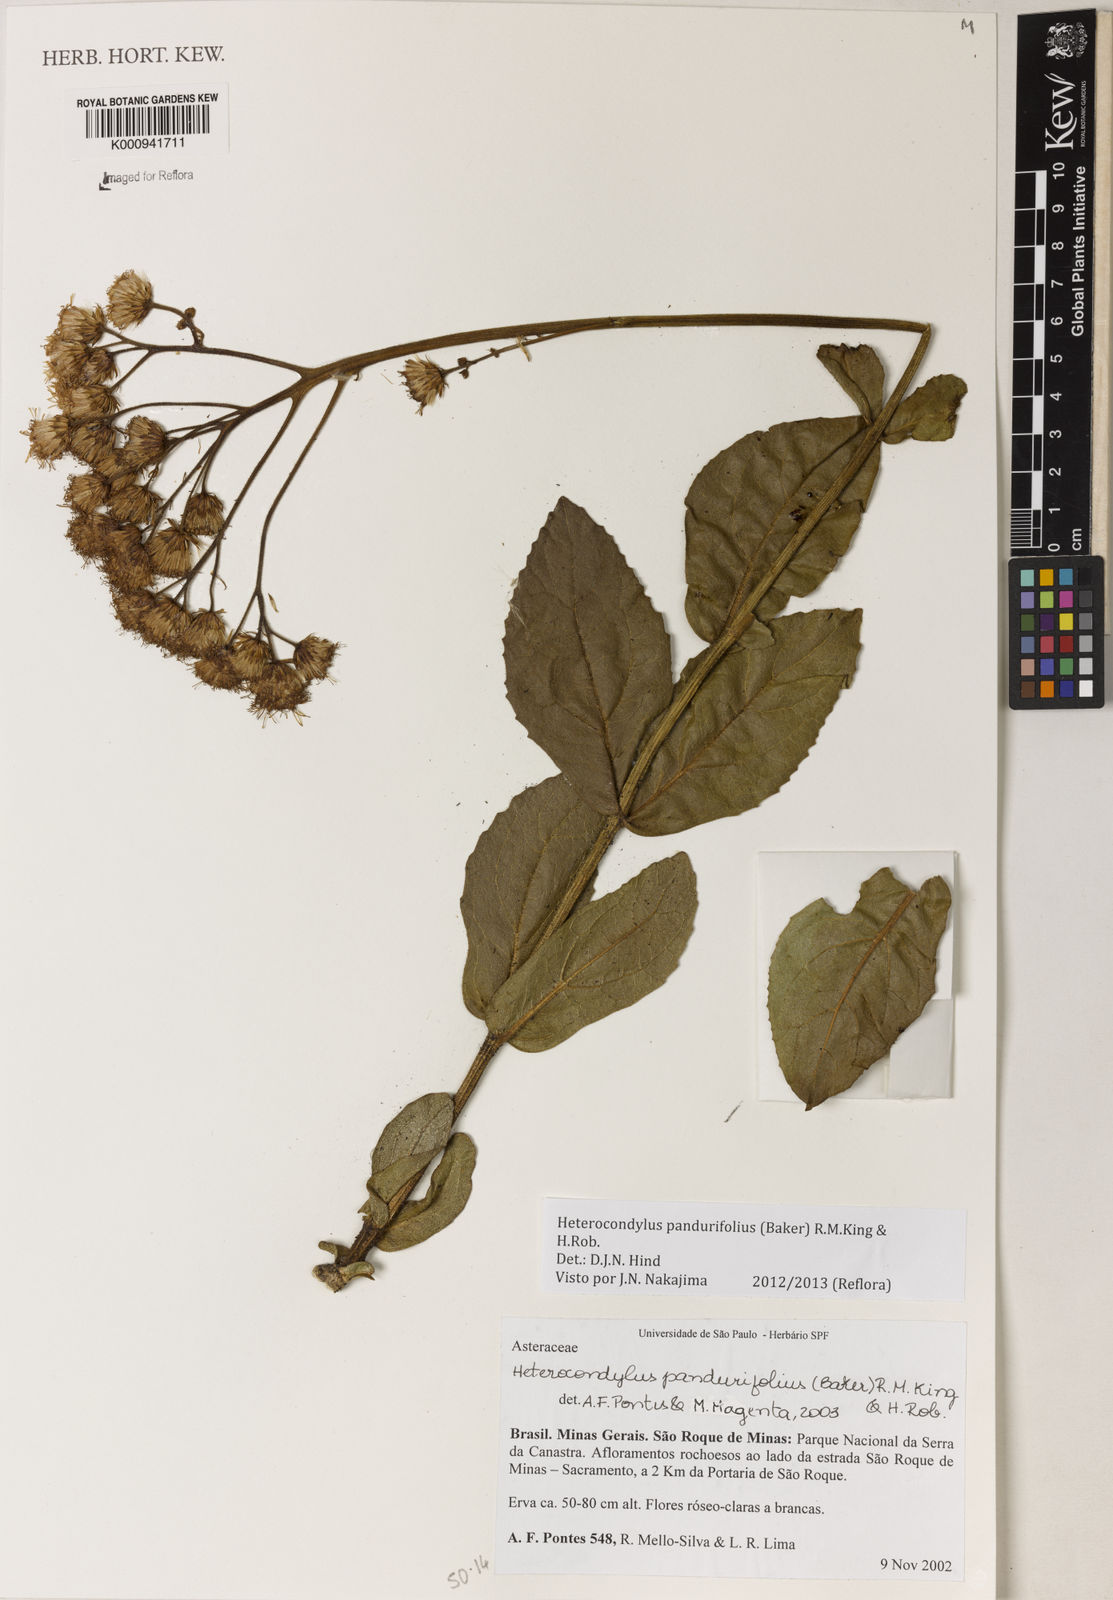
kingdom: Plantae
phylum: Tracheophyta
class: Magnoliopsida
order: Asterales
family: Asteraceae
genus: Heterocondylus
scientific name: Heterocondylus amphidictyus
